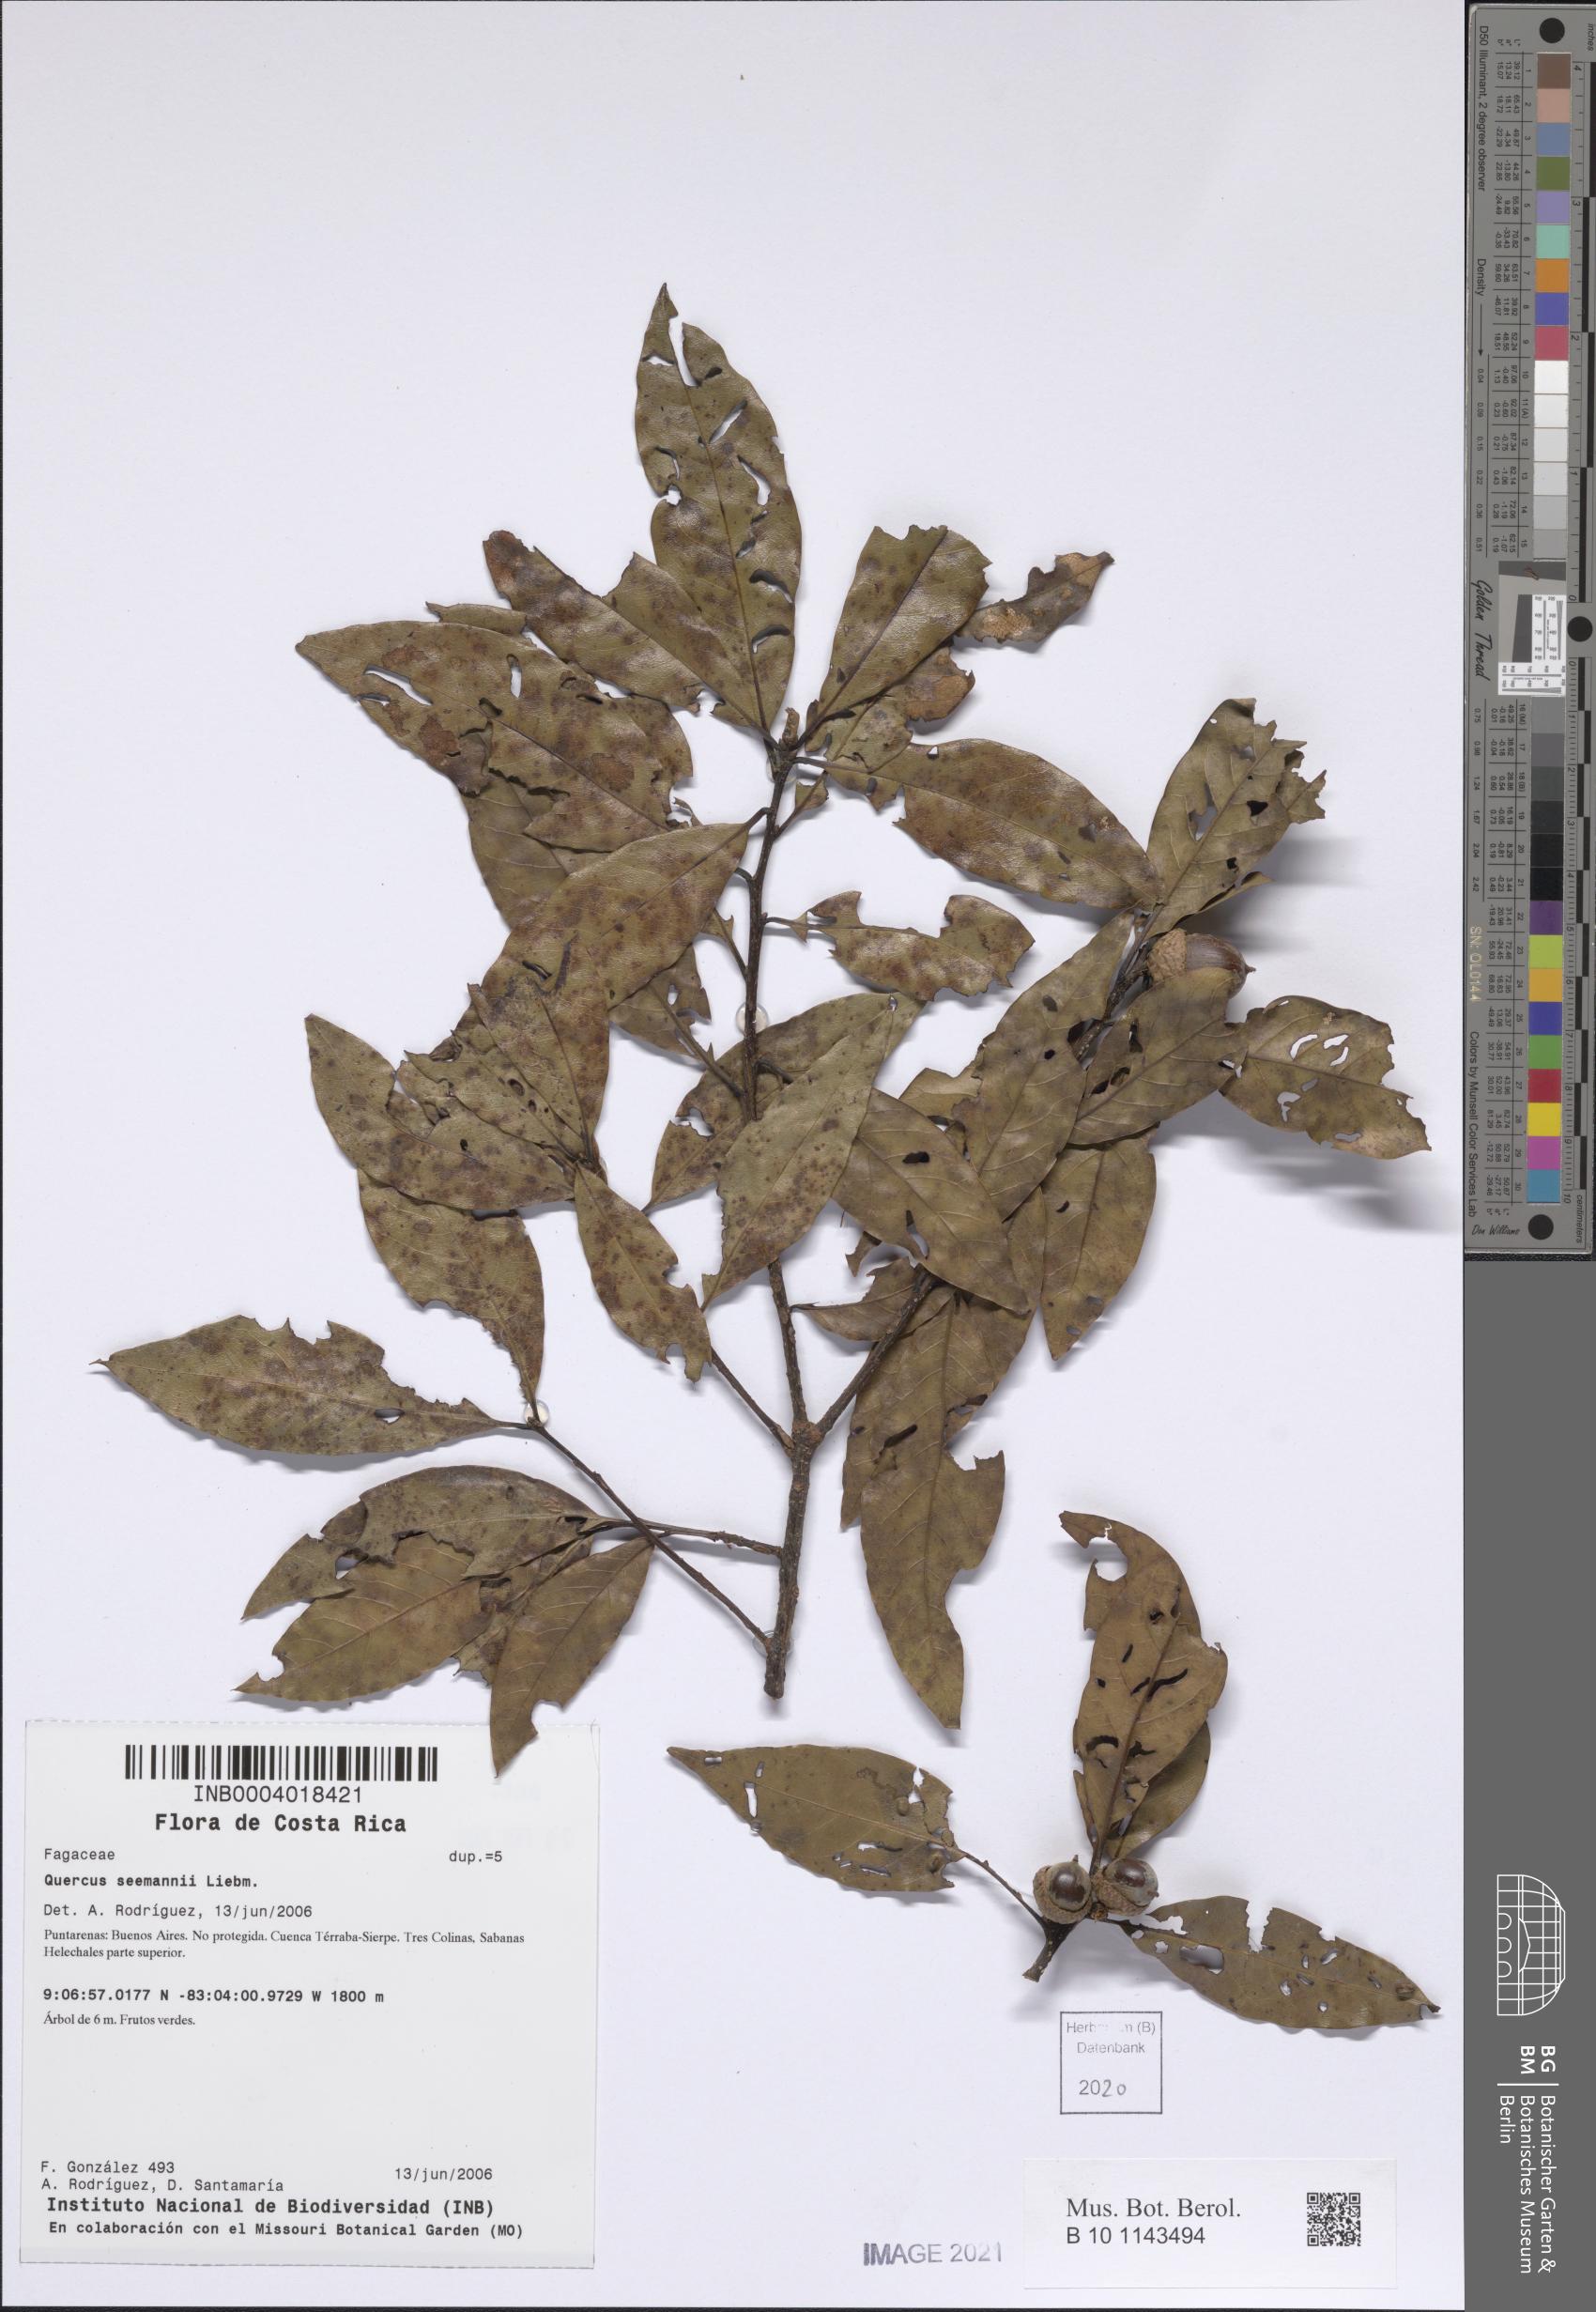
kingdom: Plantae
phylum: Tracheophyta
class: Magnoliopsida
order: Fagales
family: Fagaceae
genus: Quercus
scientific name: Quercus seemannii
